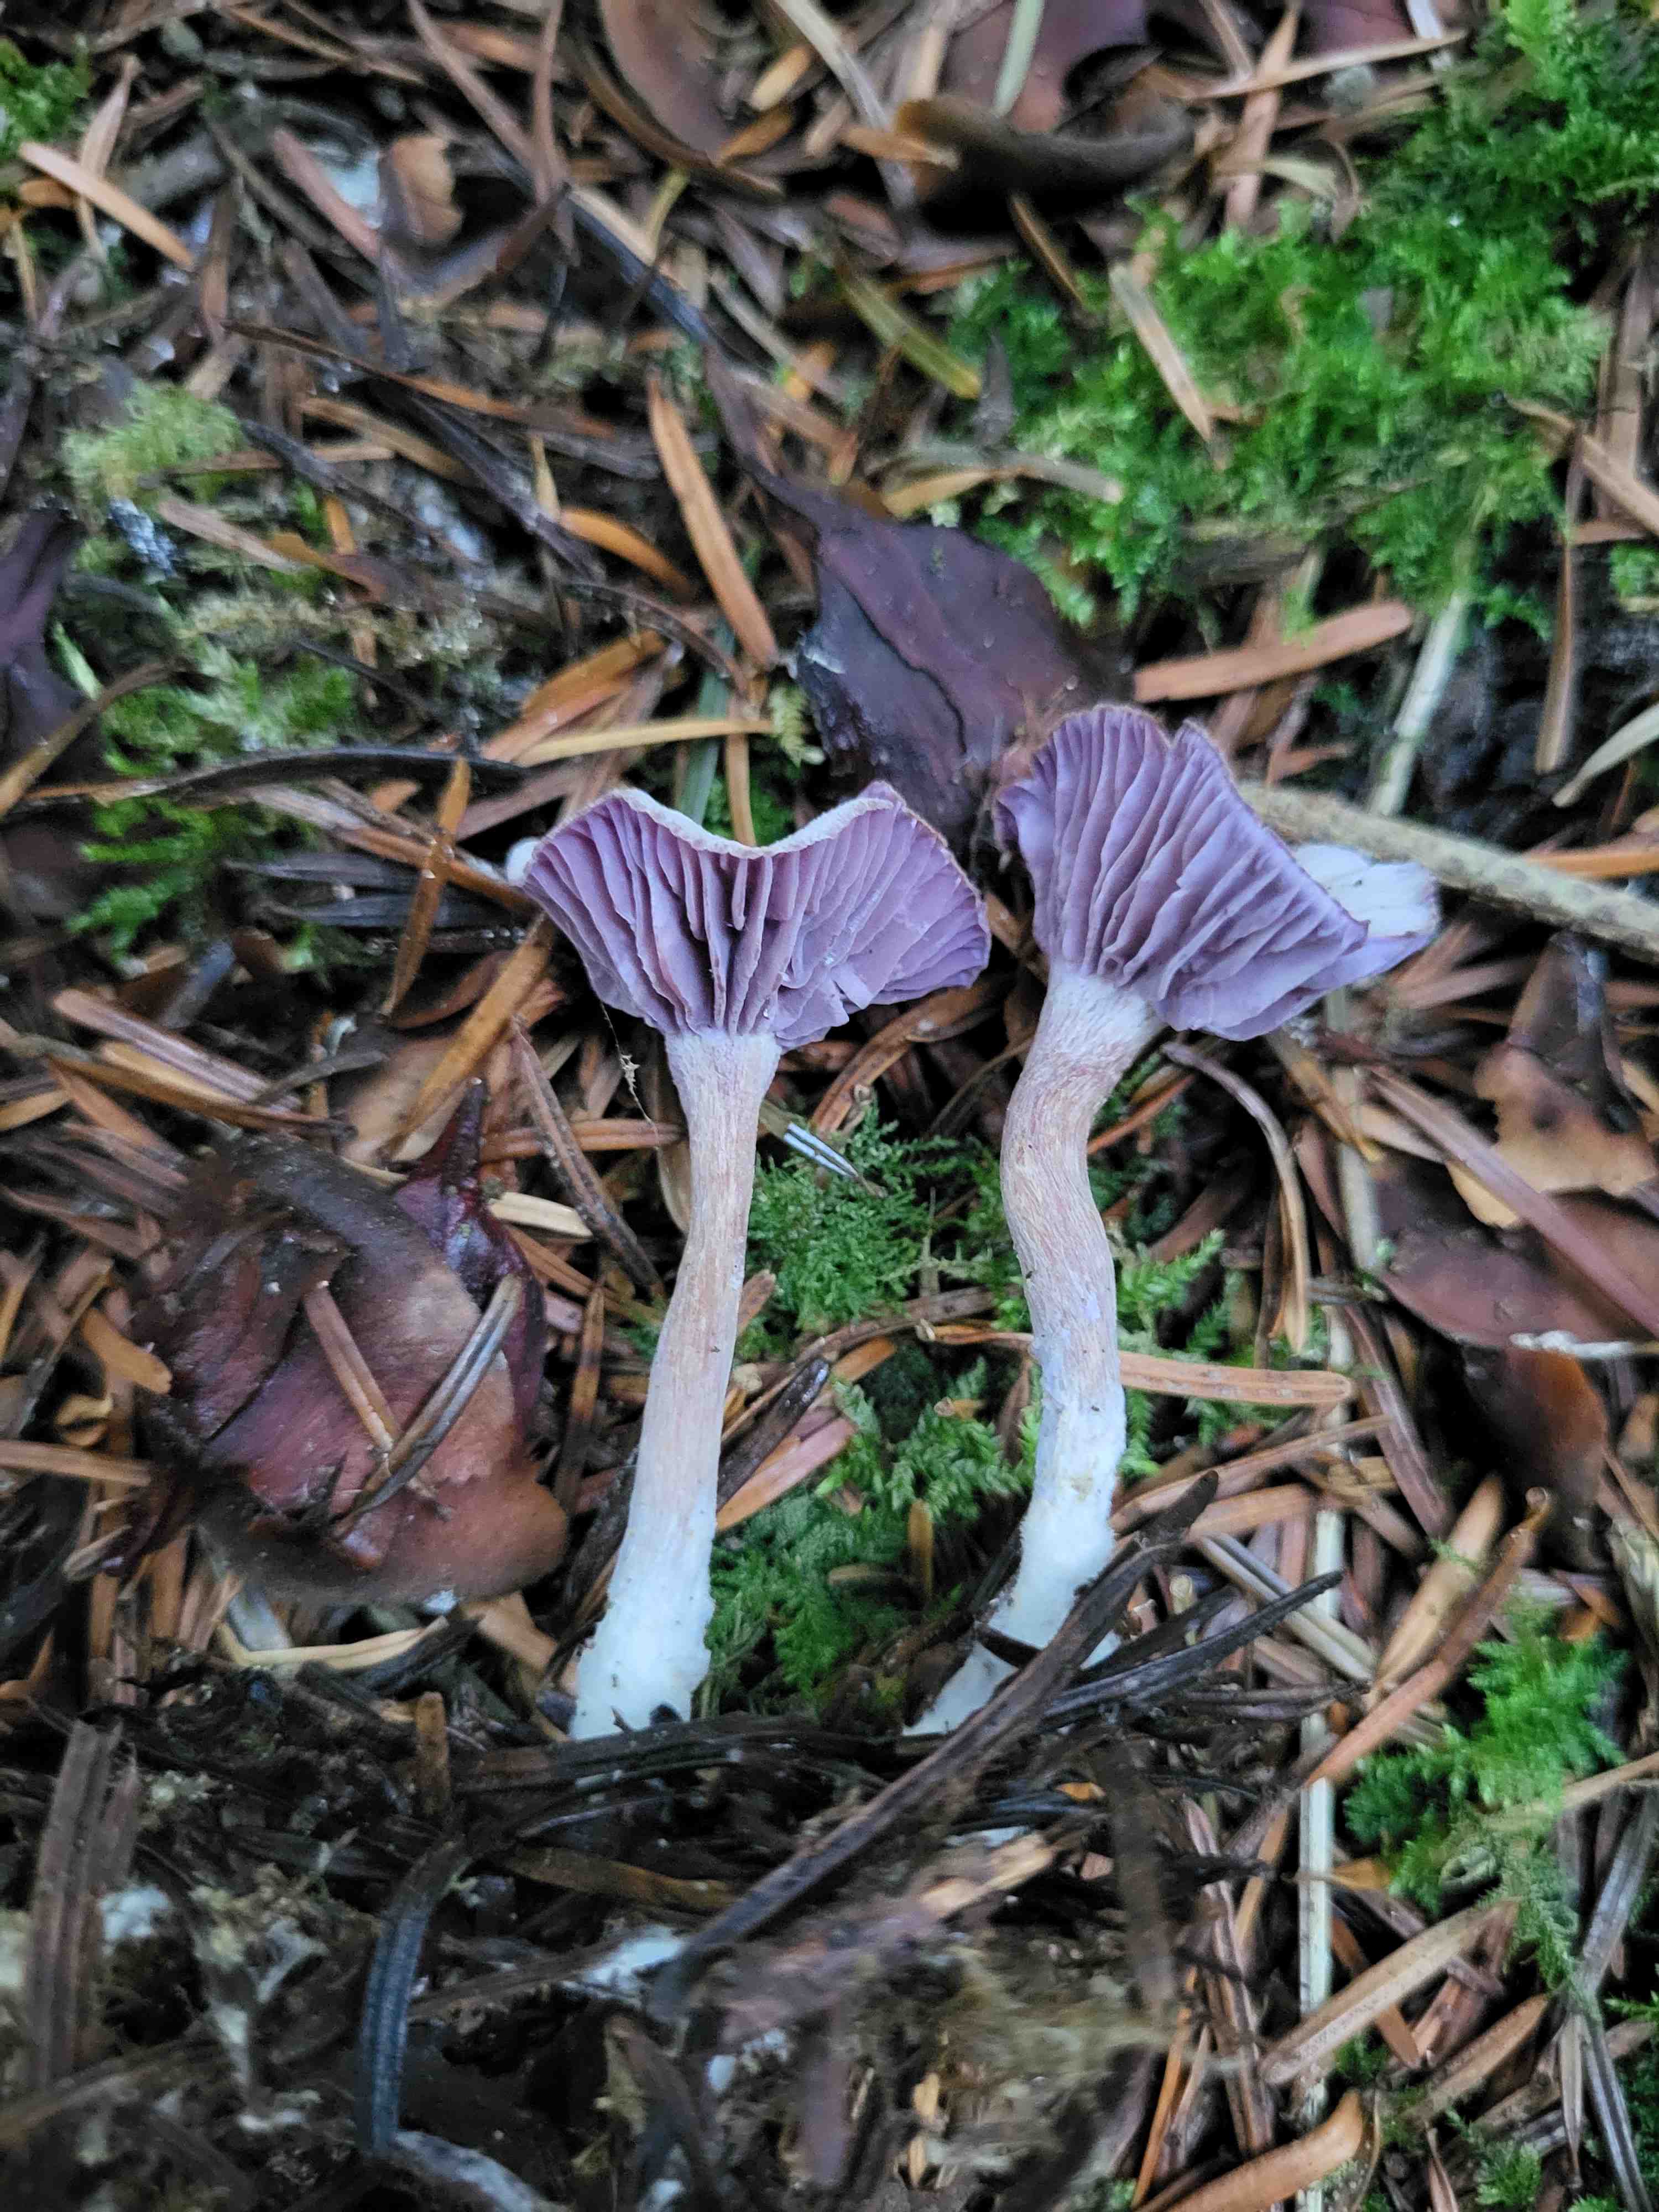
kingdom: Fungi
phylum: Basidiomycota
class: Agaricomycetes
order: Agaricales
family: Hydnangiaceae
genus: Laccaria
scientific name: Laccaria amethystina
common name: violet ametysthat
